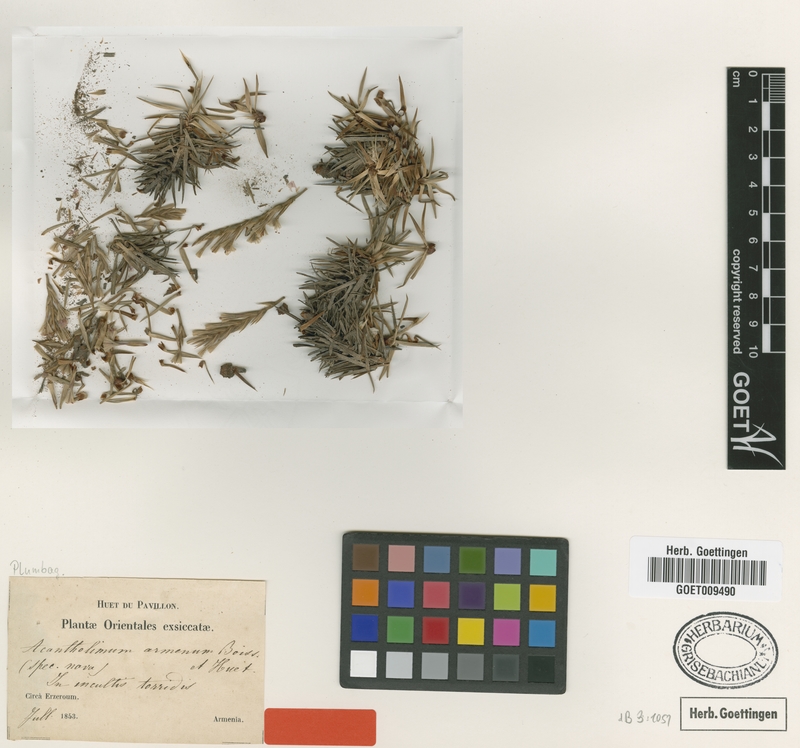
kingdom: Plantae
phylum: Tracheophyta
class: Magnoliopsida
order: Caryophyllales
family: Plumbaginaceae
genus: Acantholimon
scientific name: Acantholimon armenum
